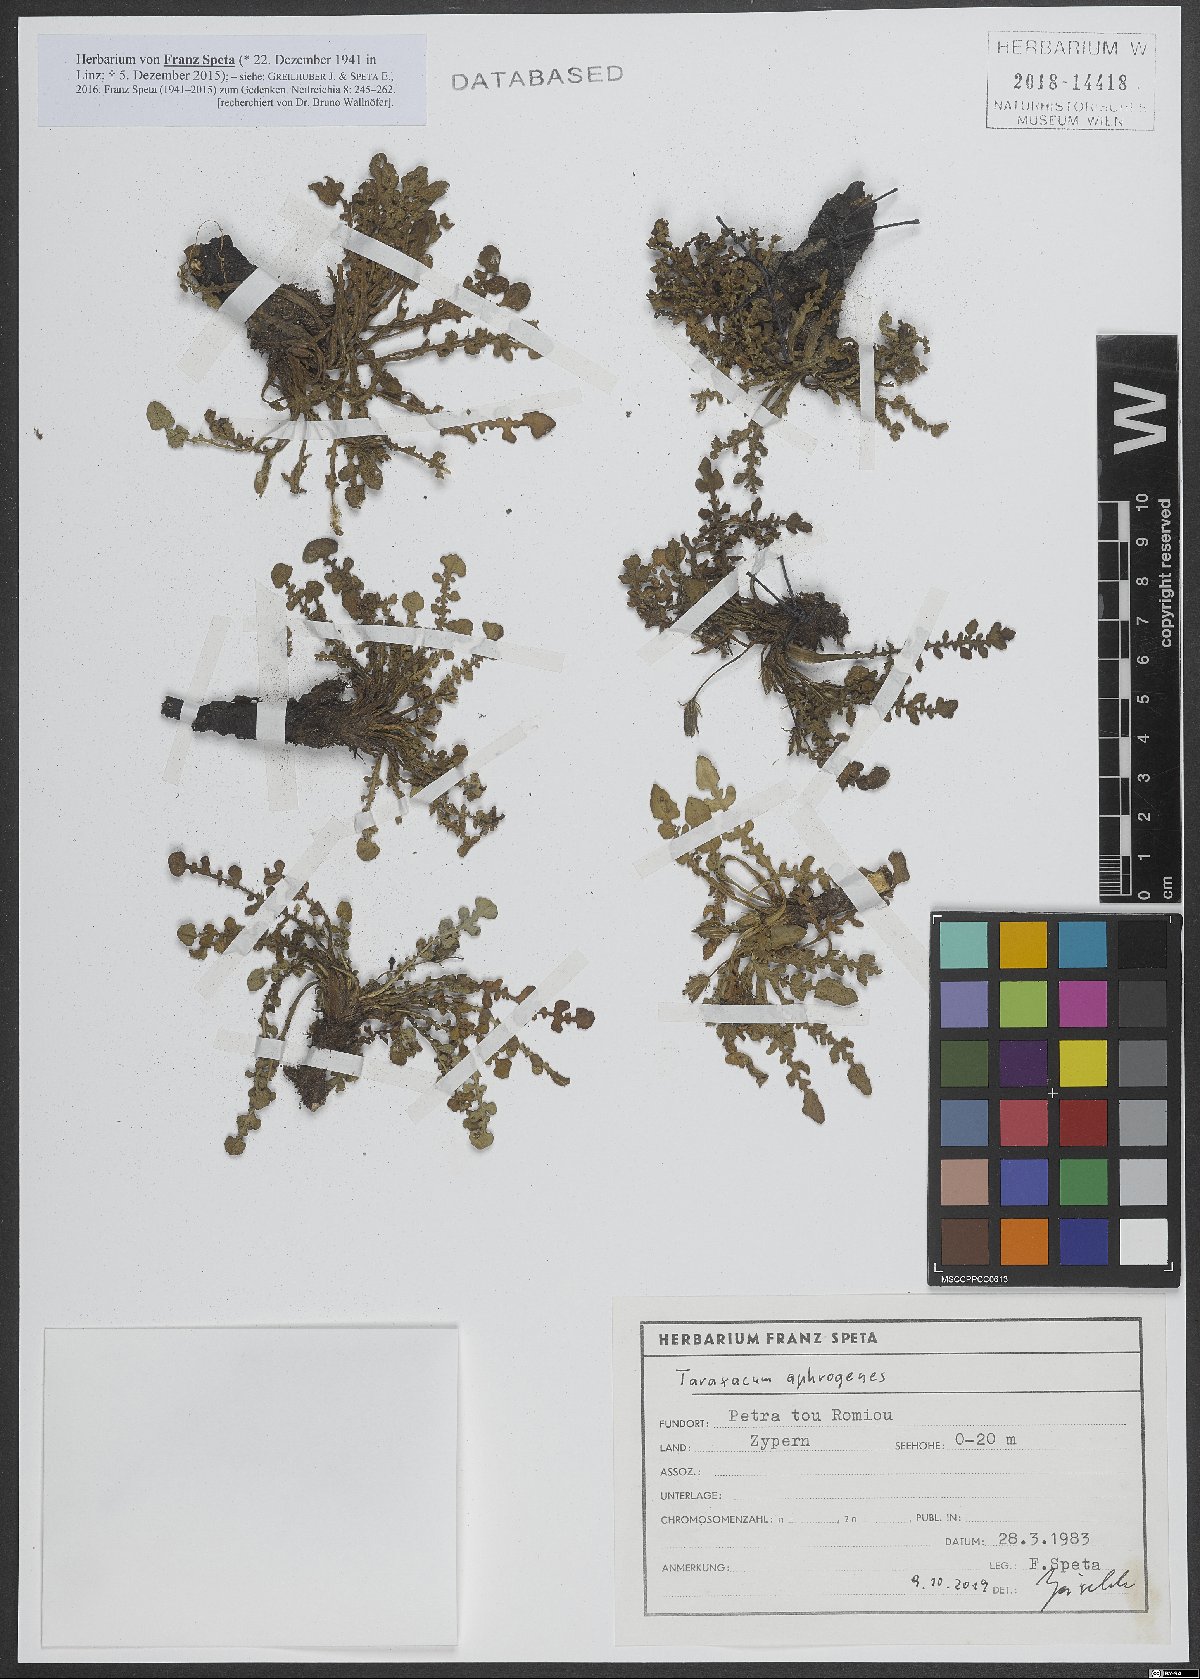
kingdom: Plantae
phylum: Tracheophyta
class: Magnoliopsida
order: Asterales
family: Asteraceae
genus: Taraxacum
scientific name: Taraxacum aphrogenes
